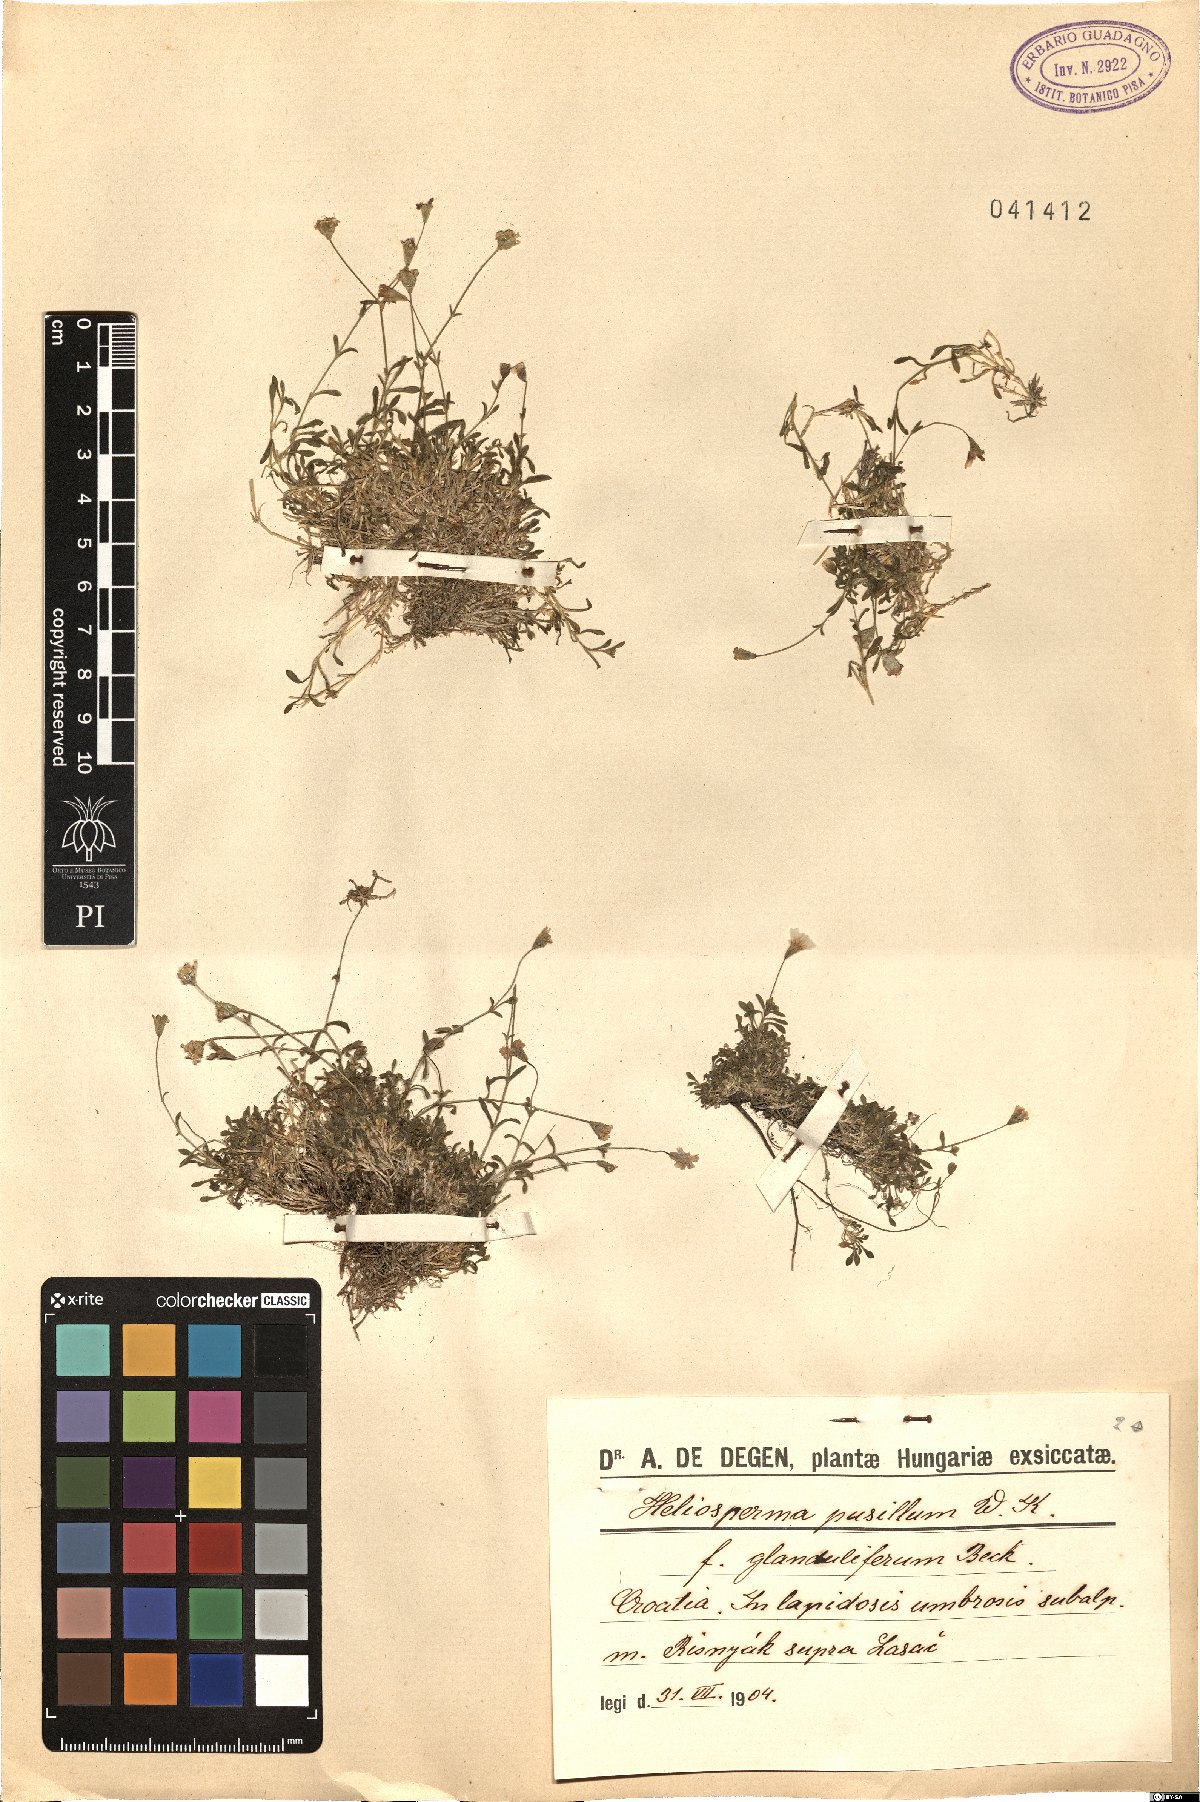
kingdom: Plantae
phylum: Tracheophyta
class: Magnoliopsida
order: Caryophyllales
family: Caryophyllaceae
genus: Heliosperma
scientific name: Heliosperma pusillum
